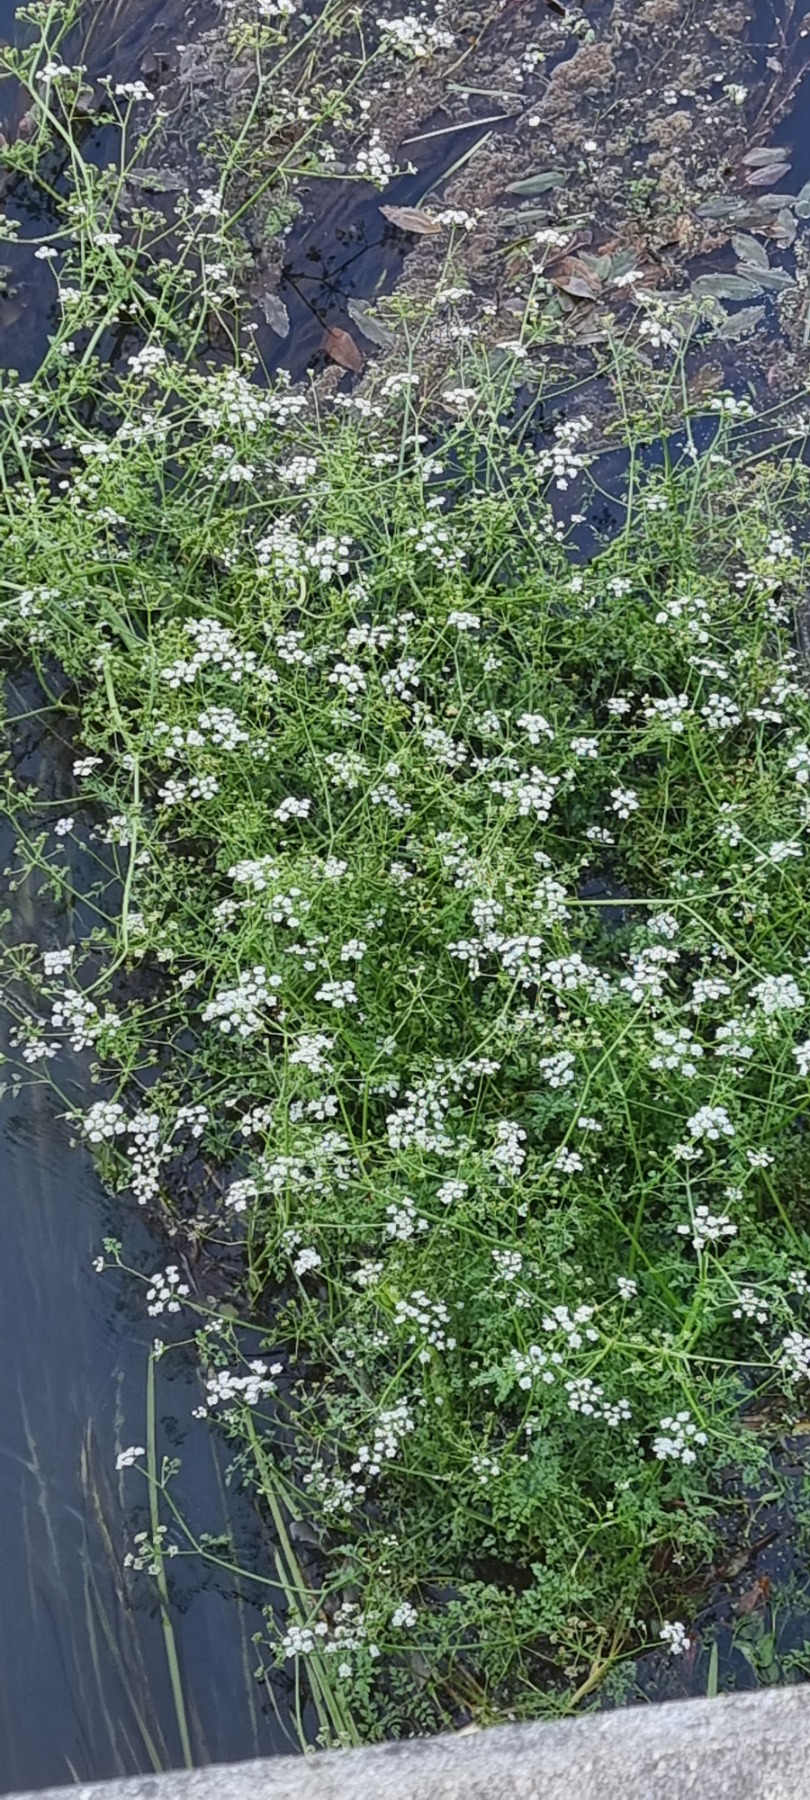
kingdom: Plantae
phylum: Tracheophyta
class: Magnoliopsida
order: Apiales
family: Apiaceae
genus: Oenanthe
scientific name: Oenanthe fluviatilis
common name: Flod-klaseskærm
